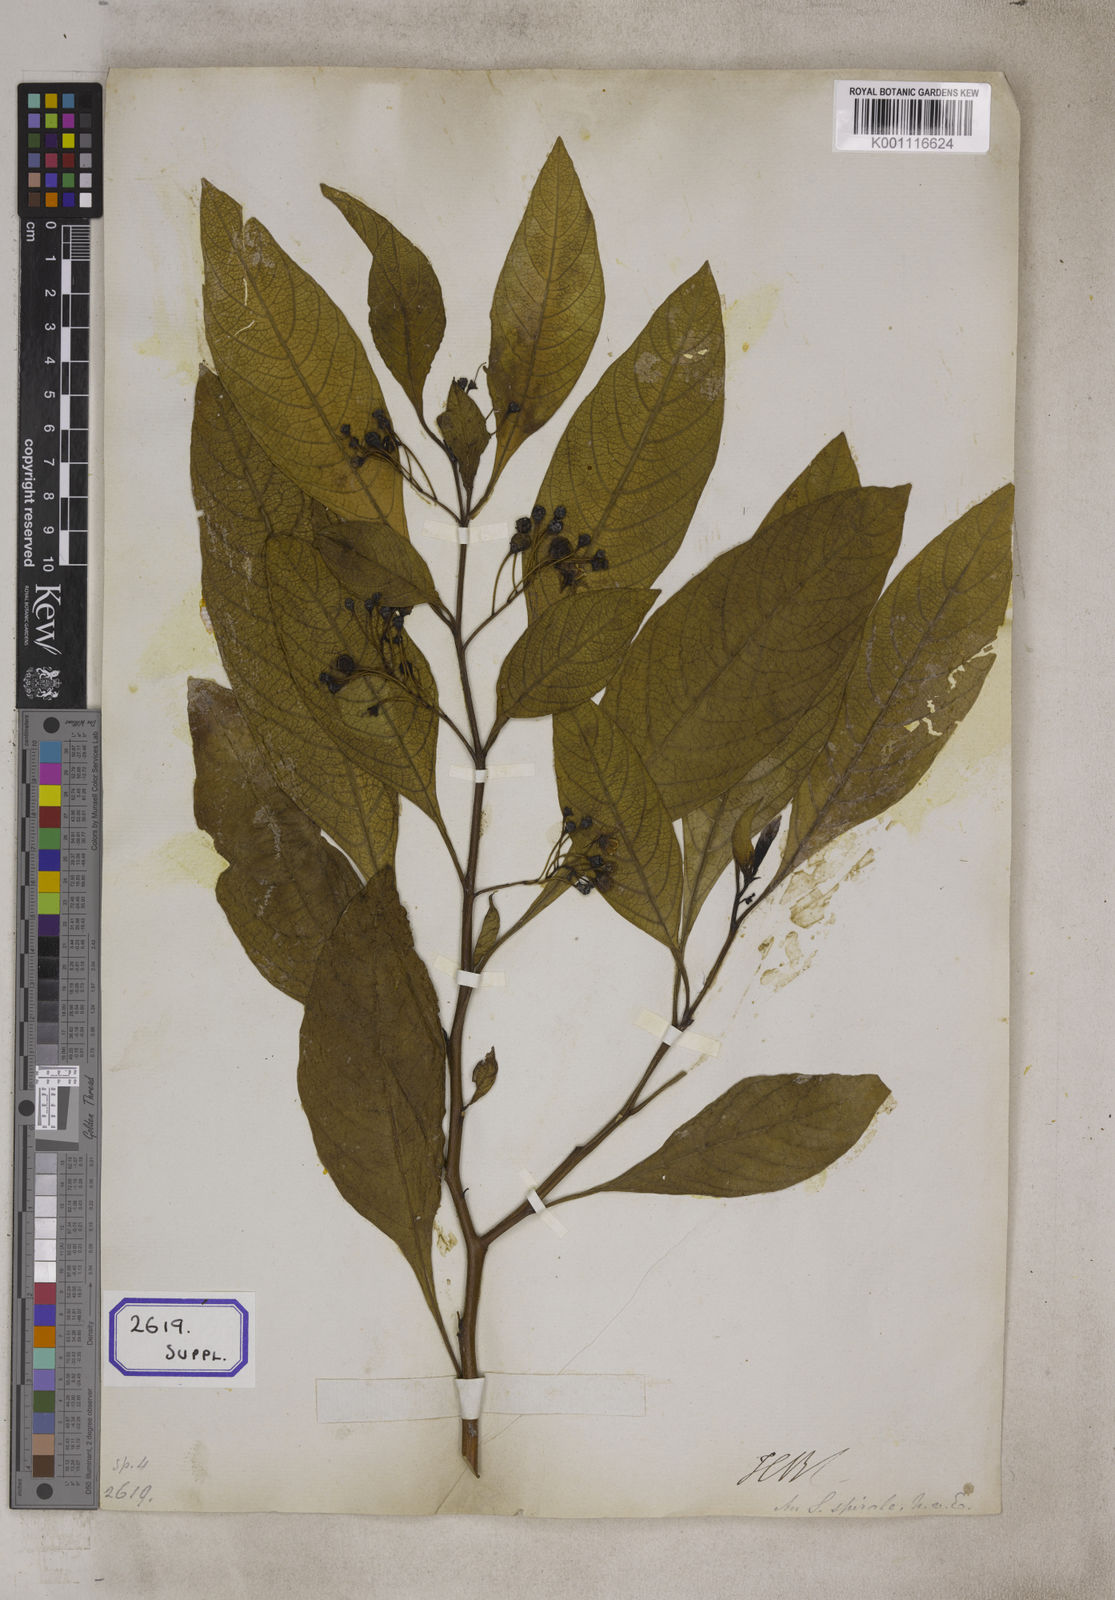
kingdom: Plantae
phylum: Tracheophyta
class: Magnoliopsida
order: Solanales
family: Solanaceae
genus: Solanum
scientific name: Solanum spirale
